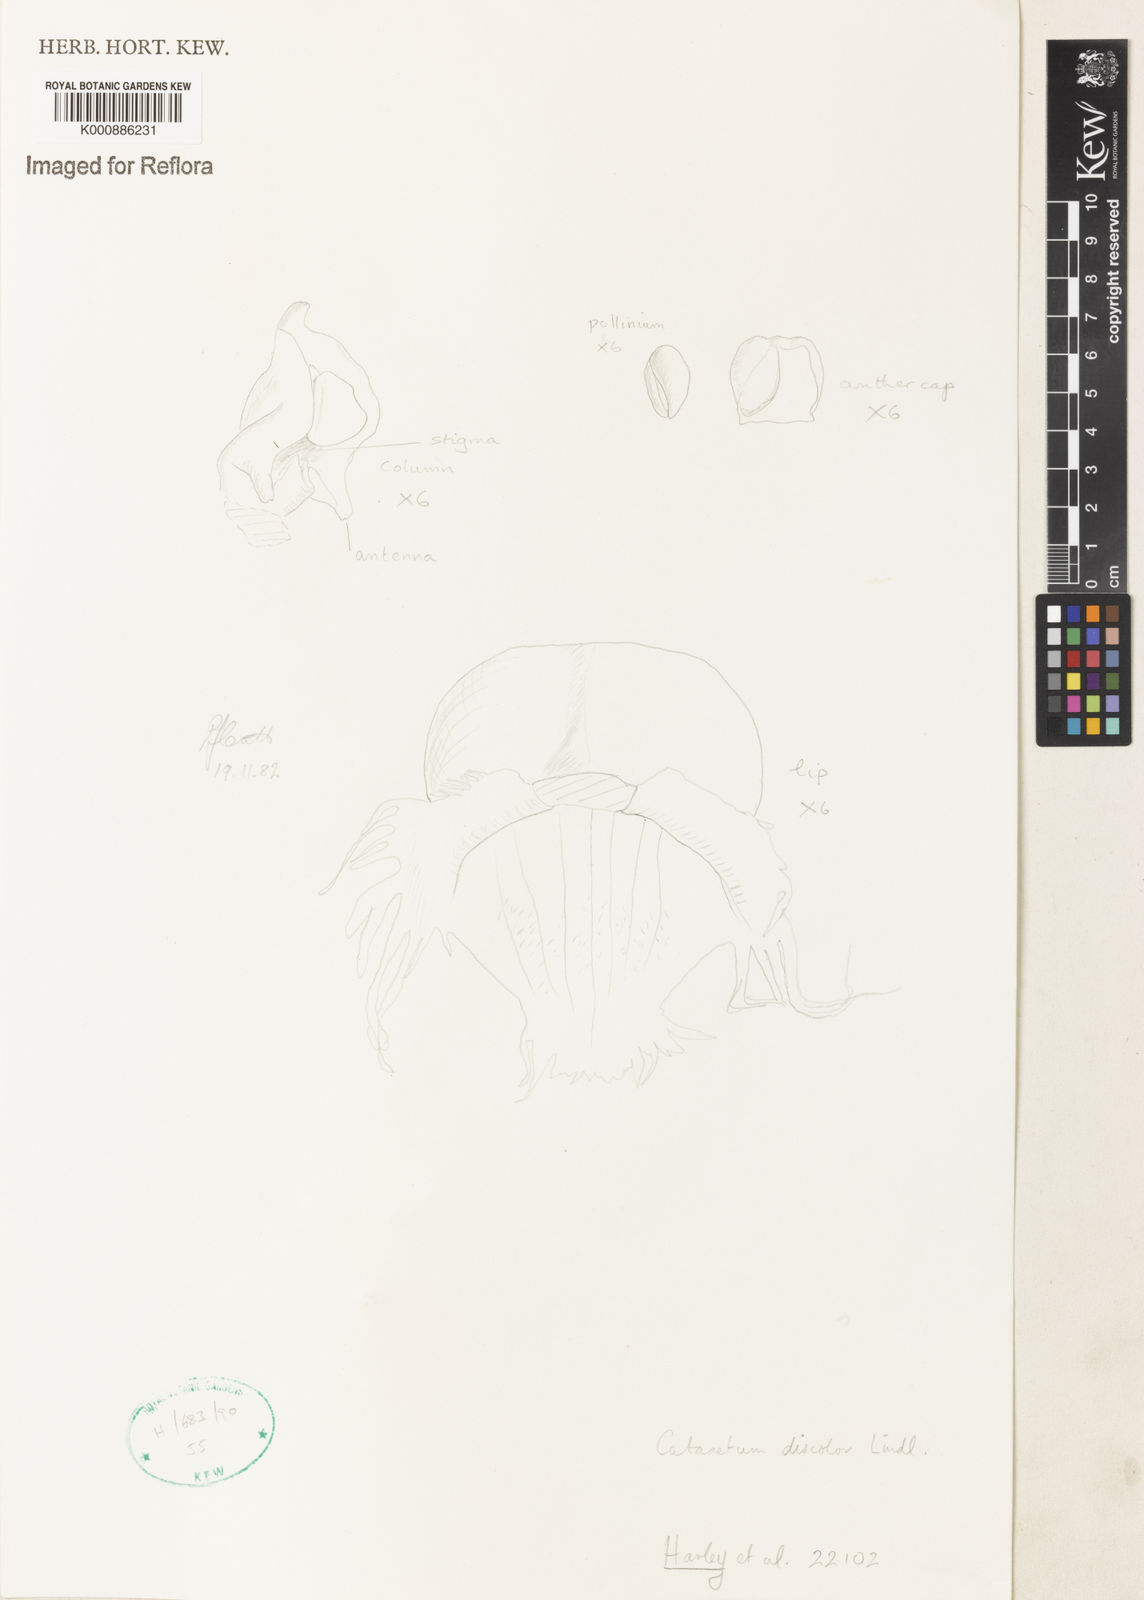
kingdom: Plantae
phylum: Tracheophyta
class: Liliopsida
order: Asparagales
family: Orchidaceae
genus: Catasetum
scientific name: Catasetum discolor
